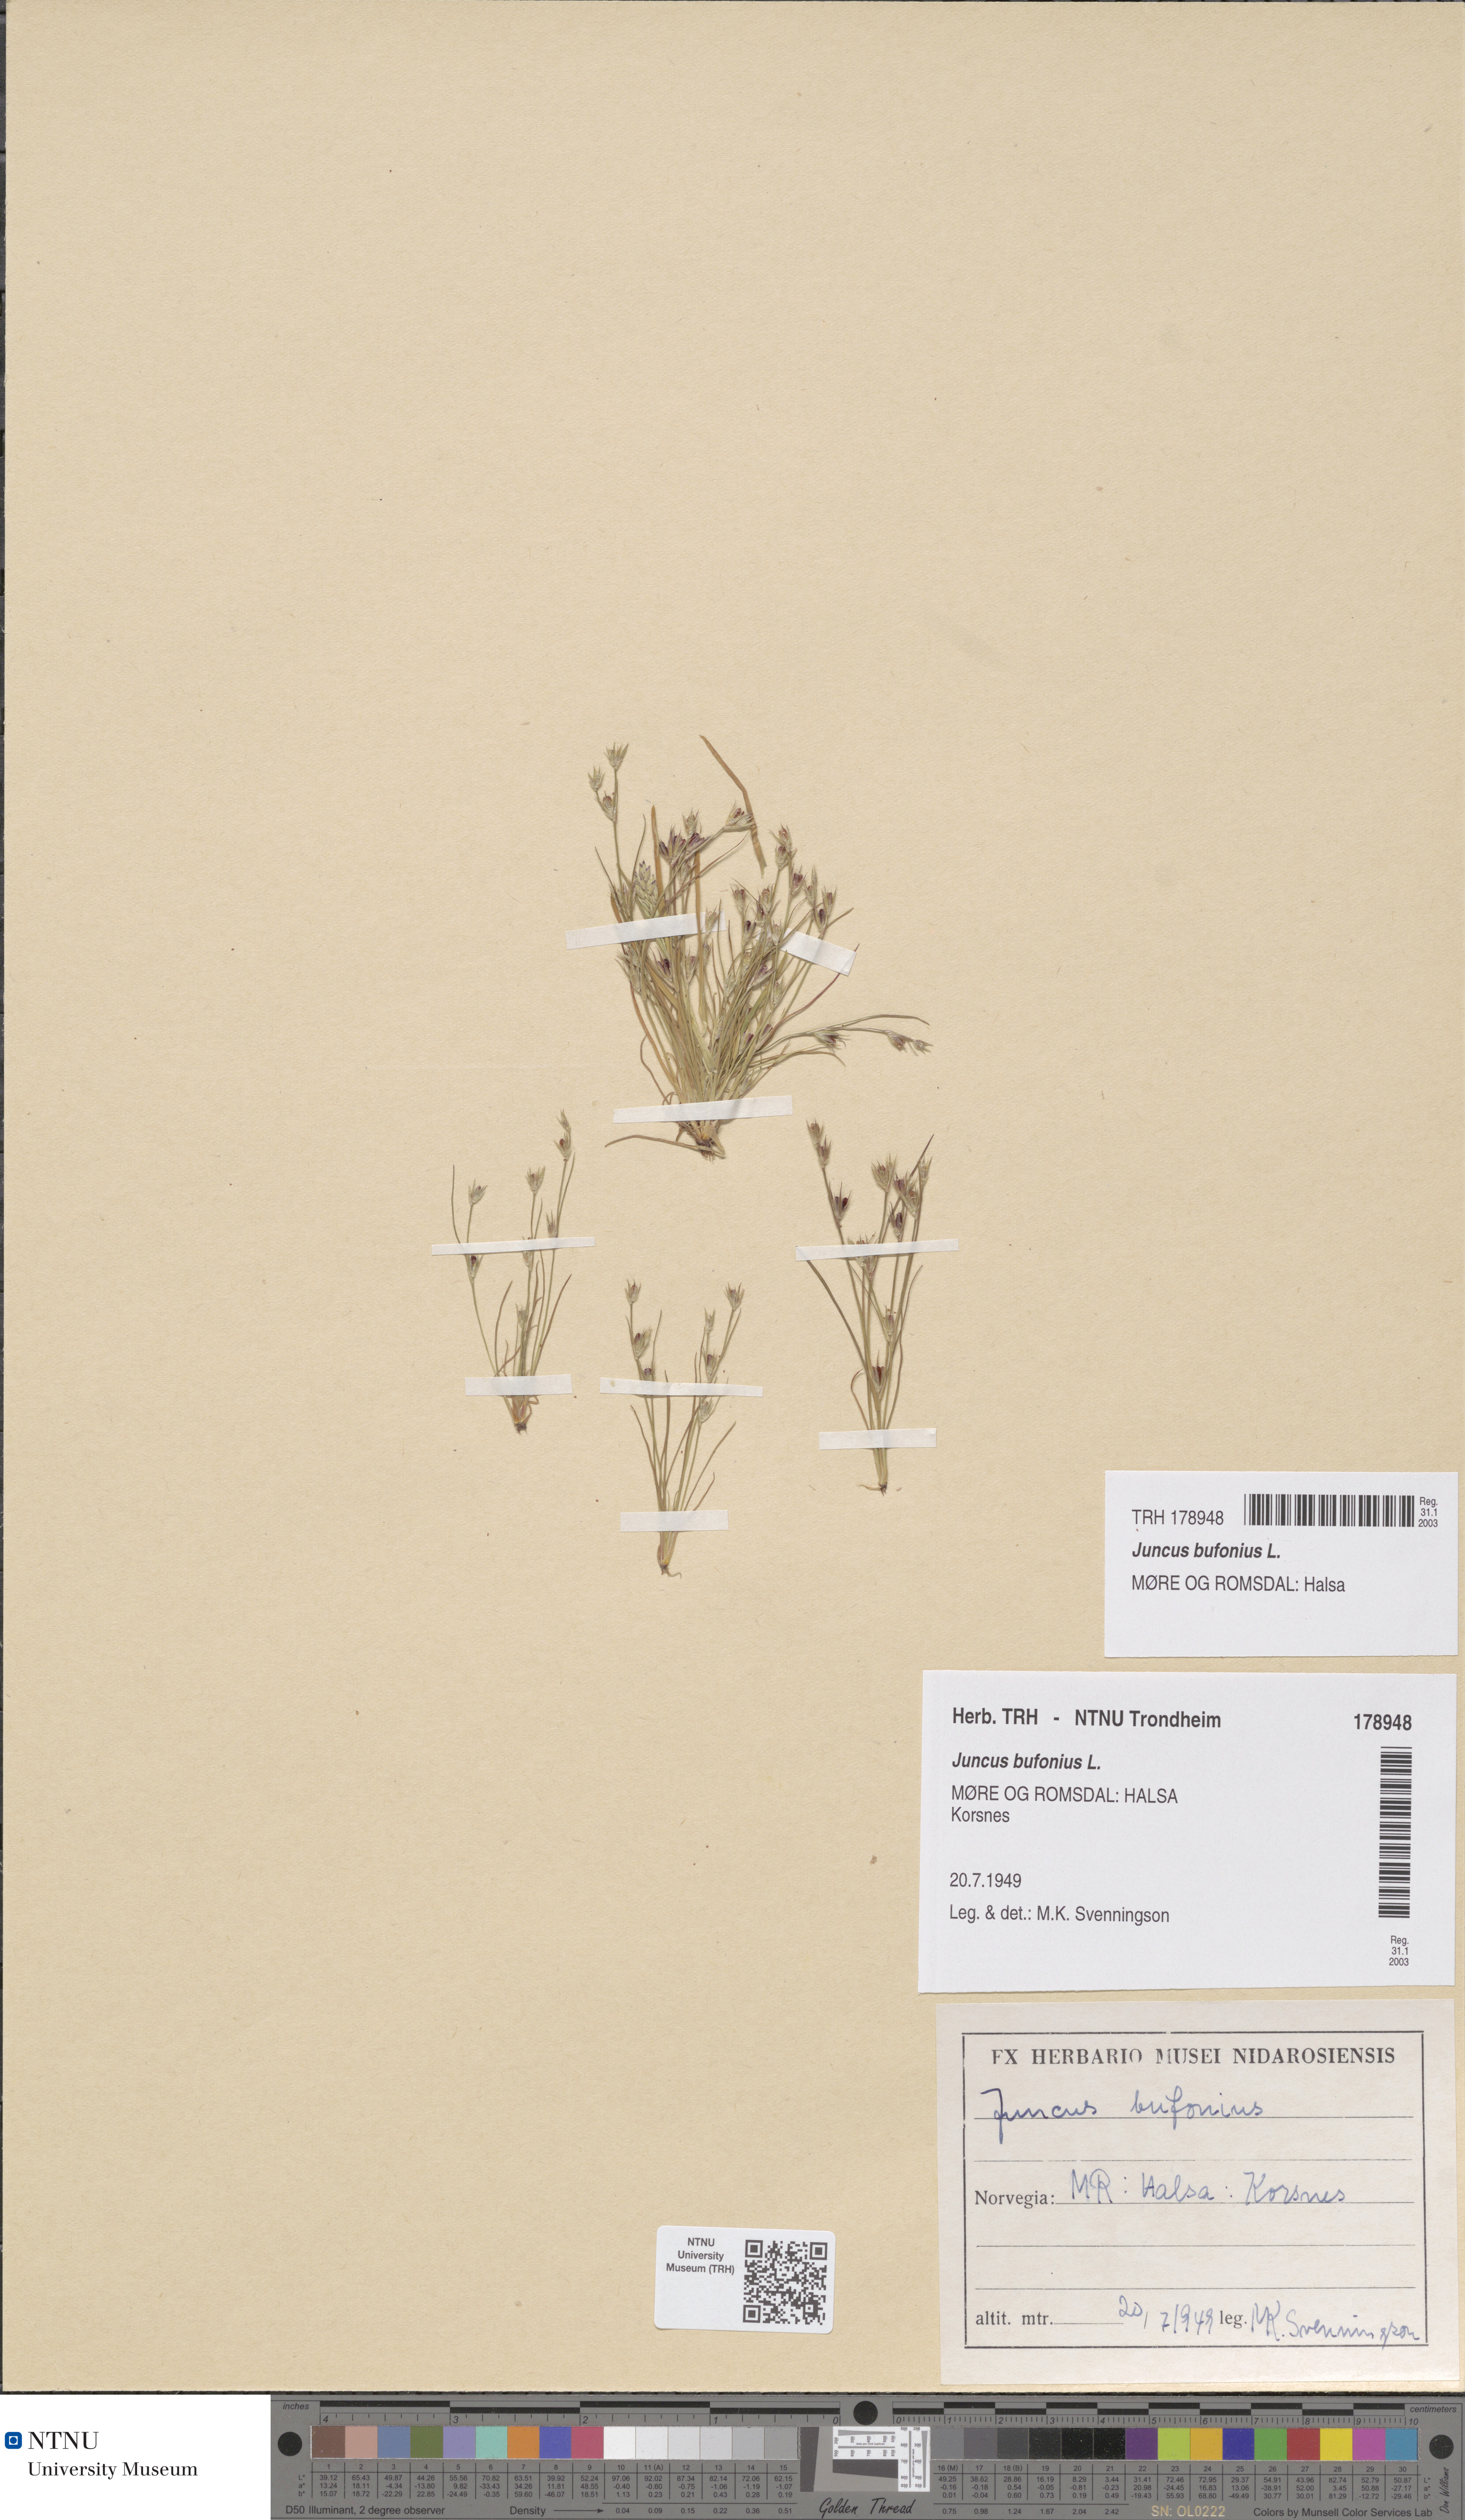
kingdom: Plantae
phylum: Tracheophyta
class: Liliopsida
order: Poales
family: Juncaceae
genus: Juncus
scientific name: Juncus bufonius
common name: Toad rush
